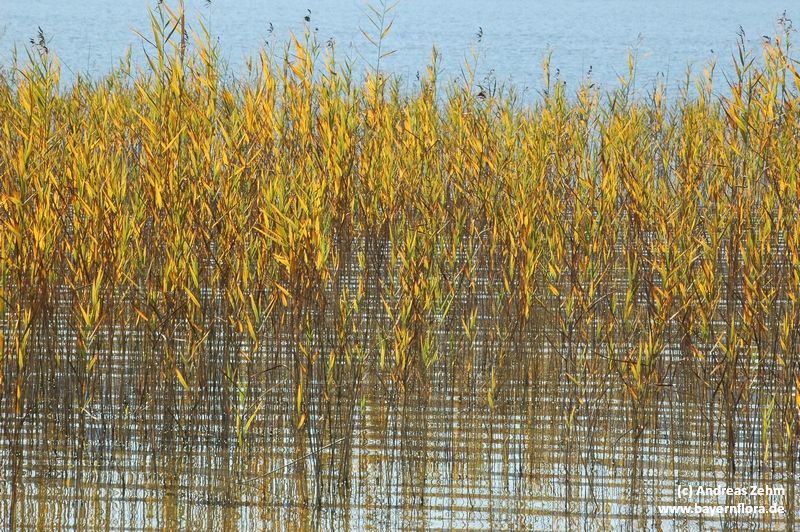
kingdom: Plantae
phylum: Tracheophyta
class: Liliopsida
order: Poales
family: Poaceae
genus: Phragmites
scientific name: Phragmites australis
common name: Common reed
